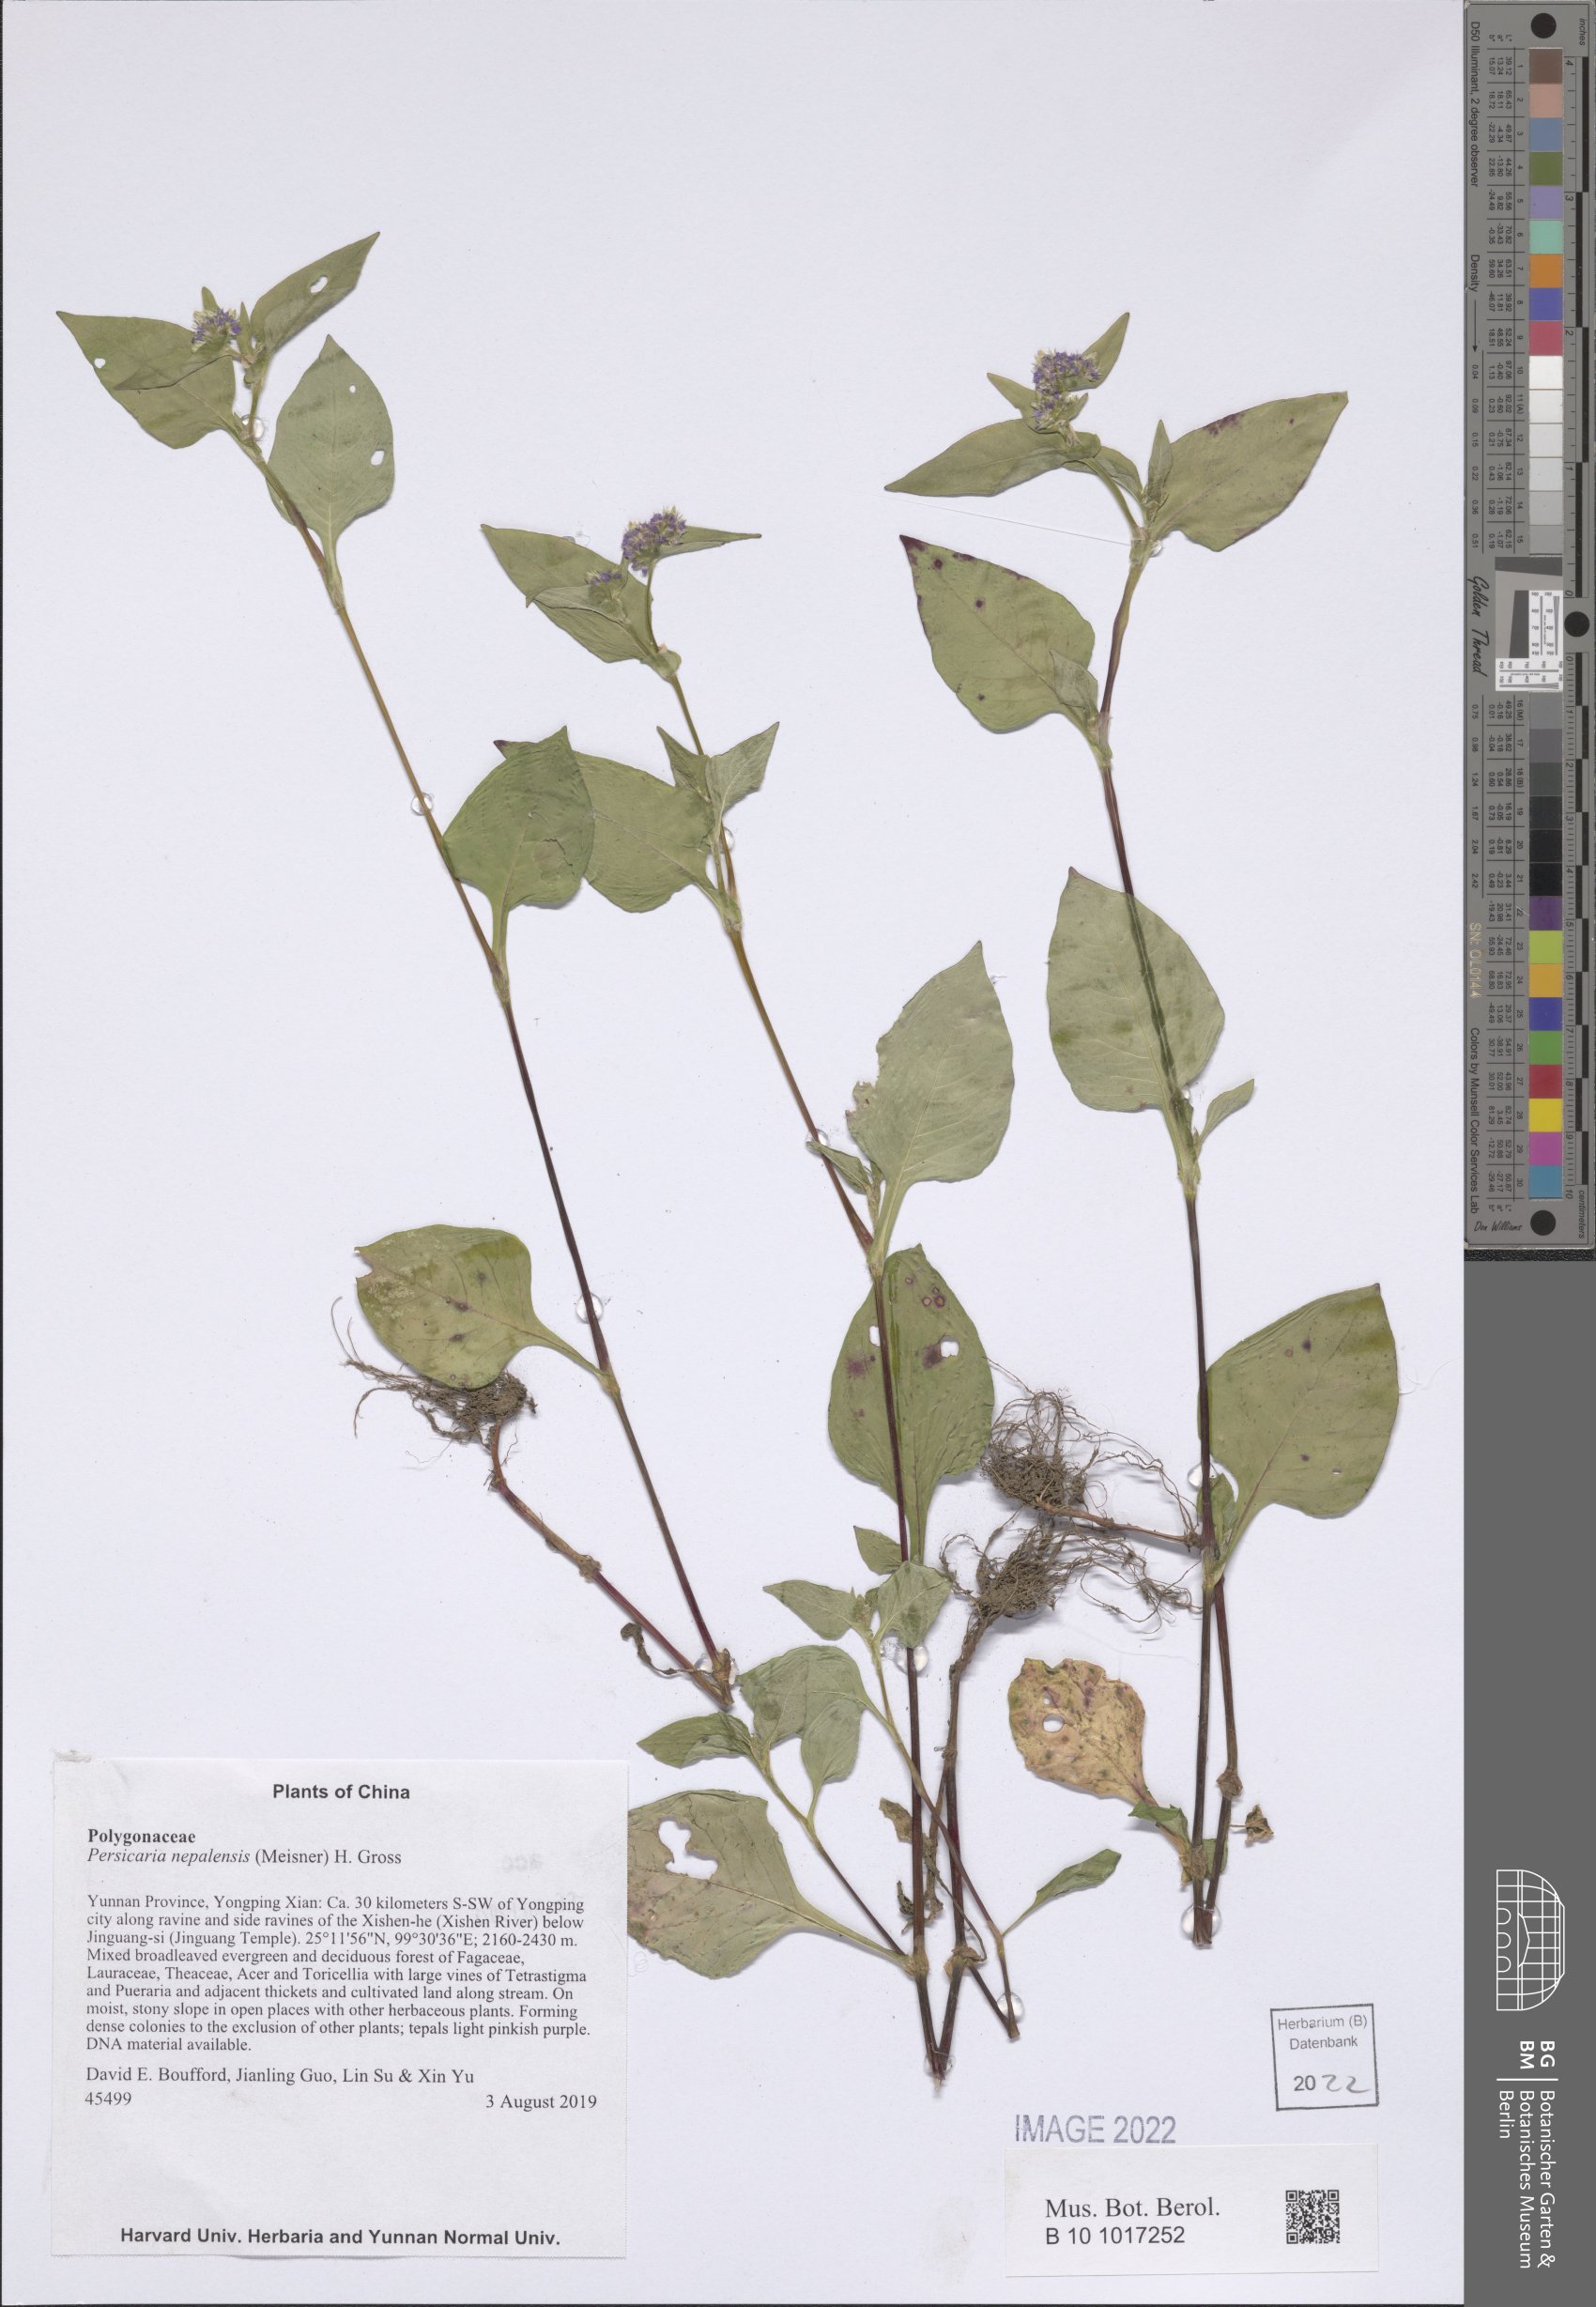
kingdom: Plantae
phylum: Tracheophyta
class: Magnoliopsida
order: Caryophyllales
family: Polygonaceae
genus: Persicaria
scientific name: Persicaria nepalensis
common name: Nepal persicaria
